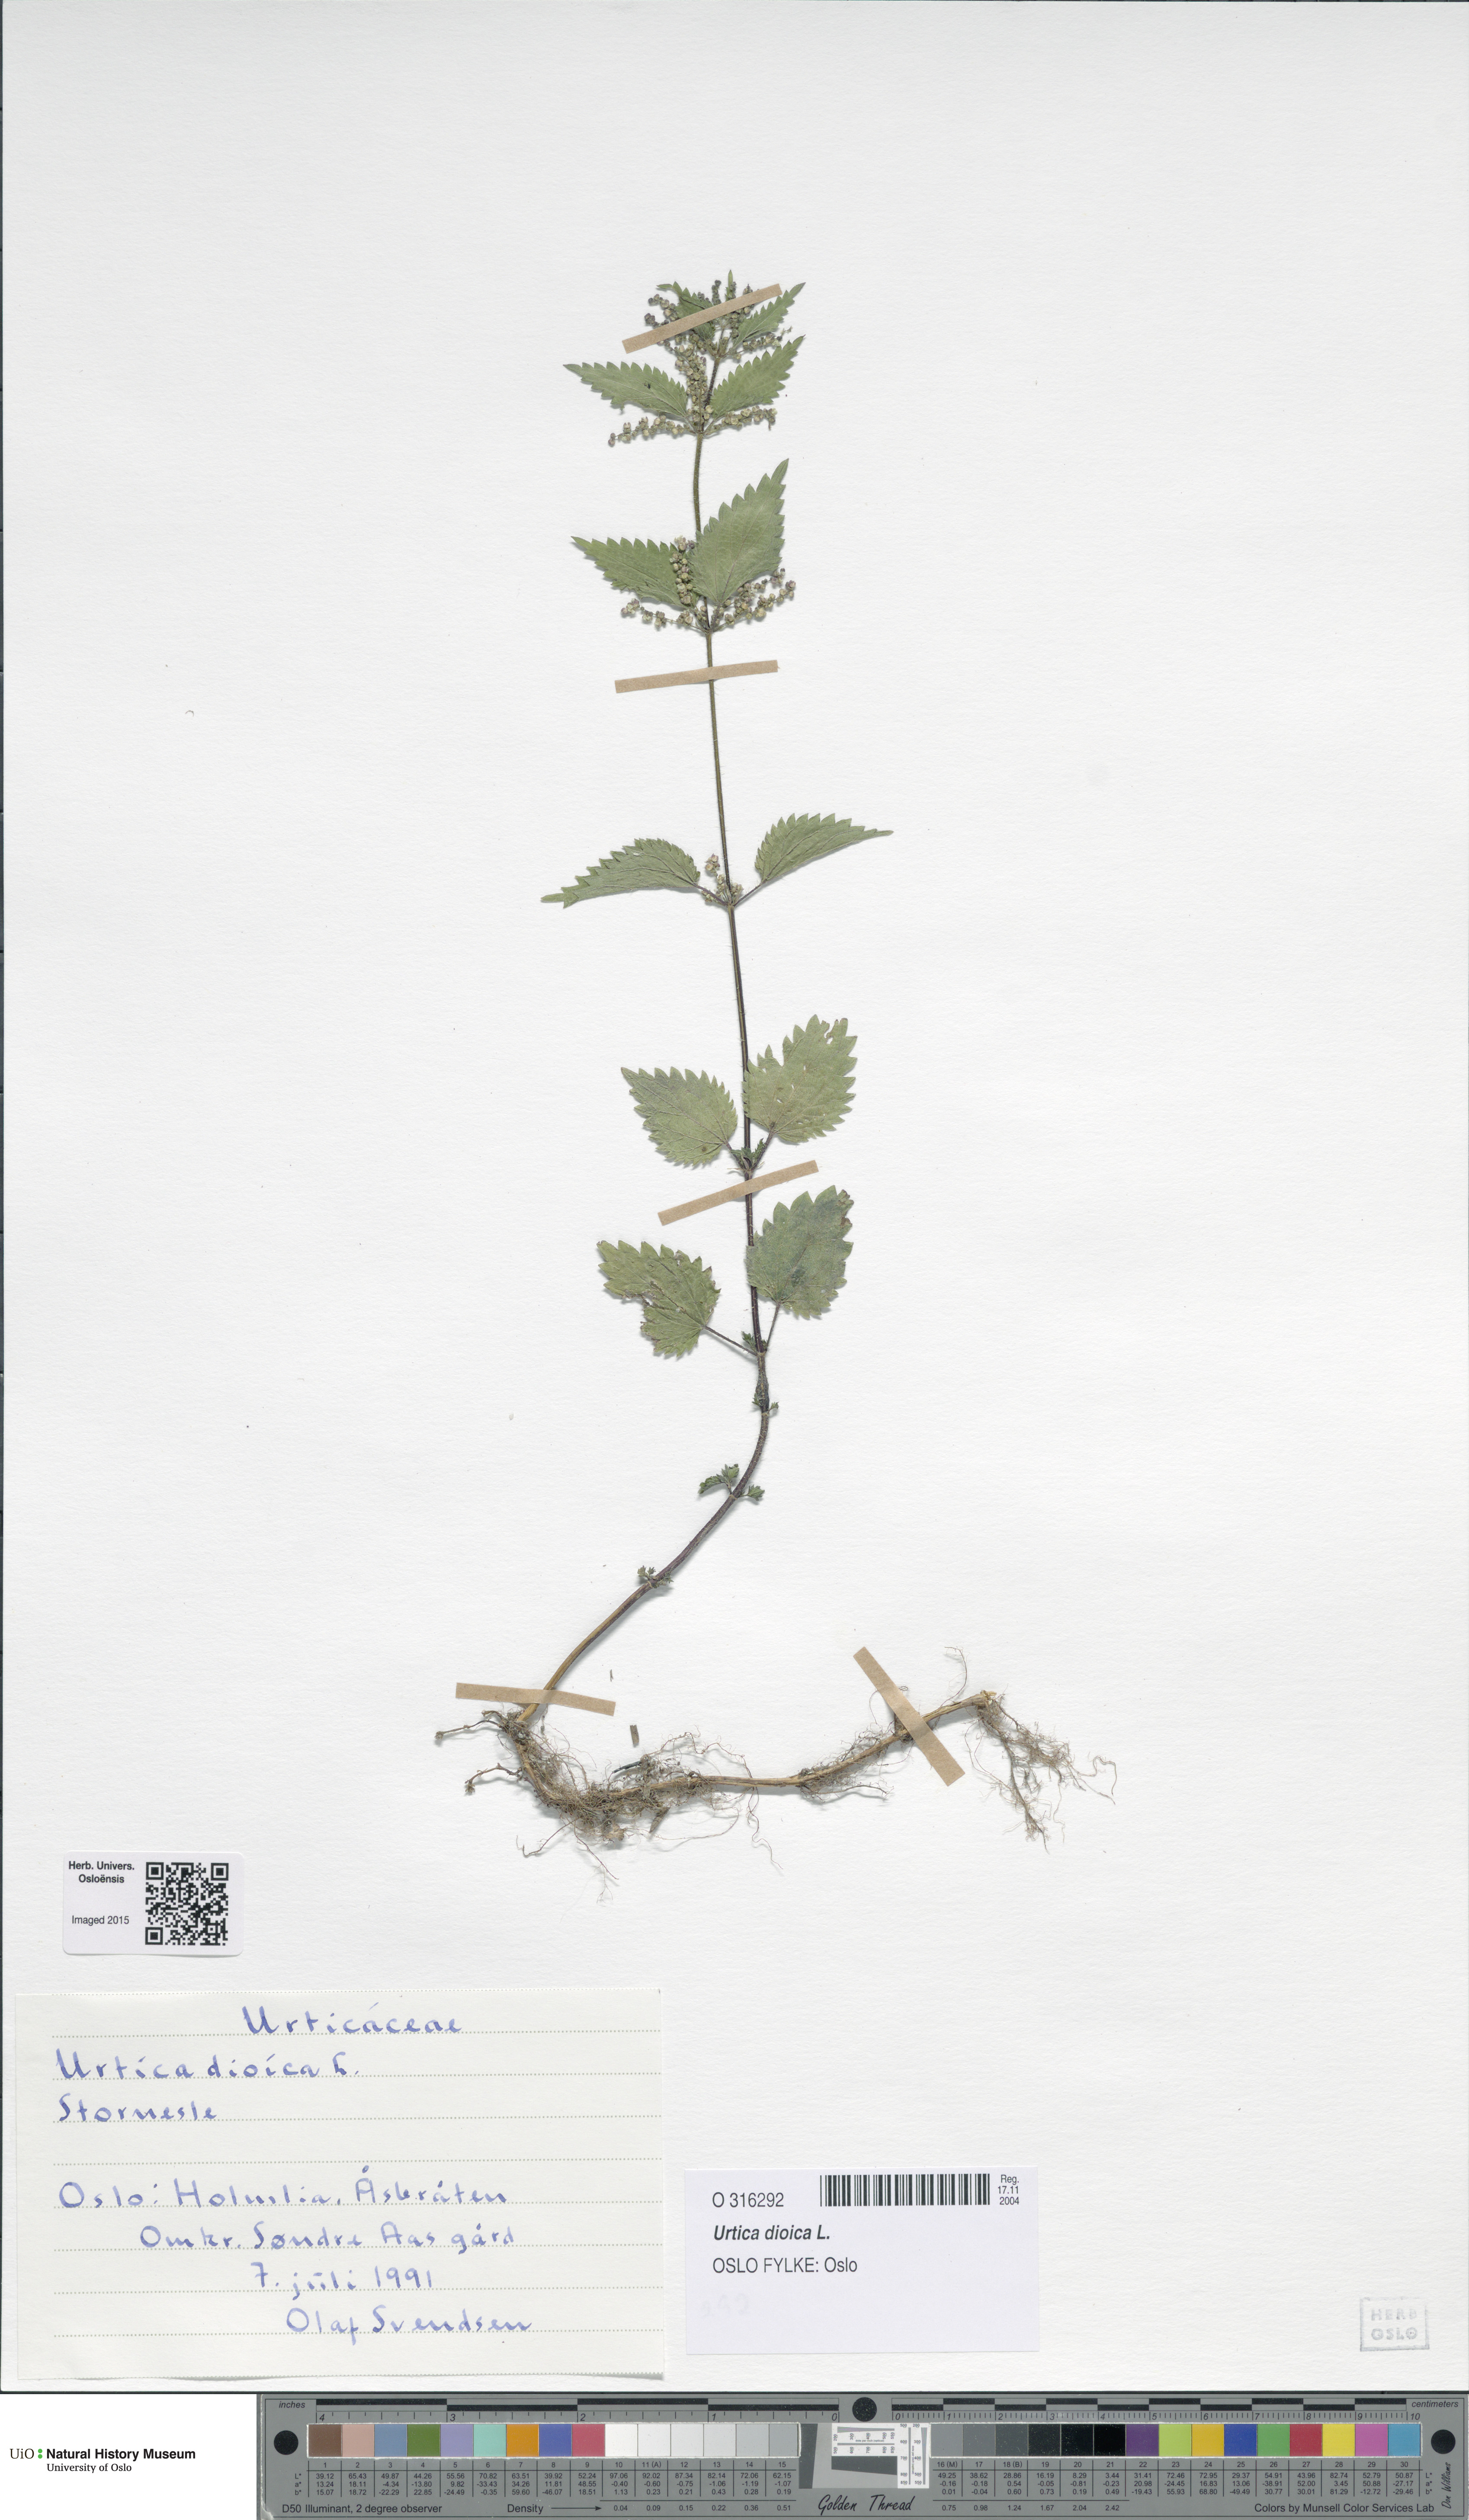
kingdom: Plantae
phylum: Tracheophyta
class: Magnoliopsida
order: Rosales
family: Urticaceae
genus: Urtica
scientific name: Urtica dioica
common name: Common nettle
